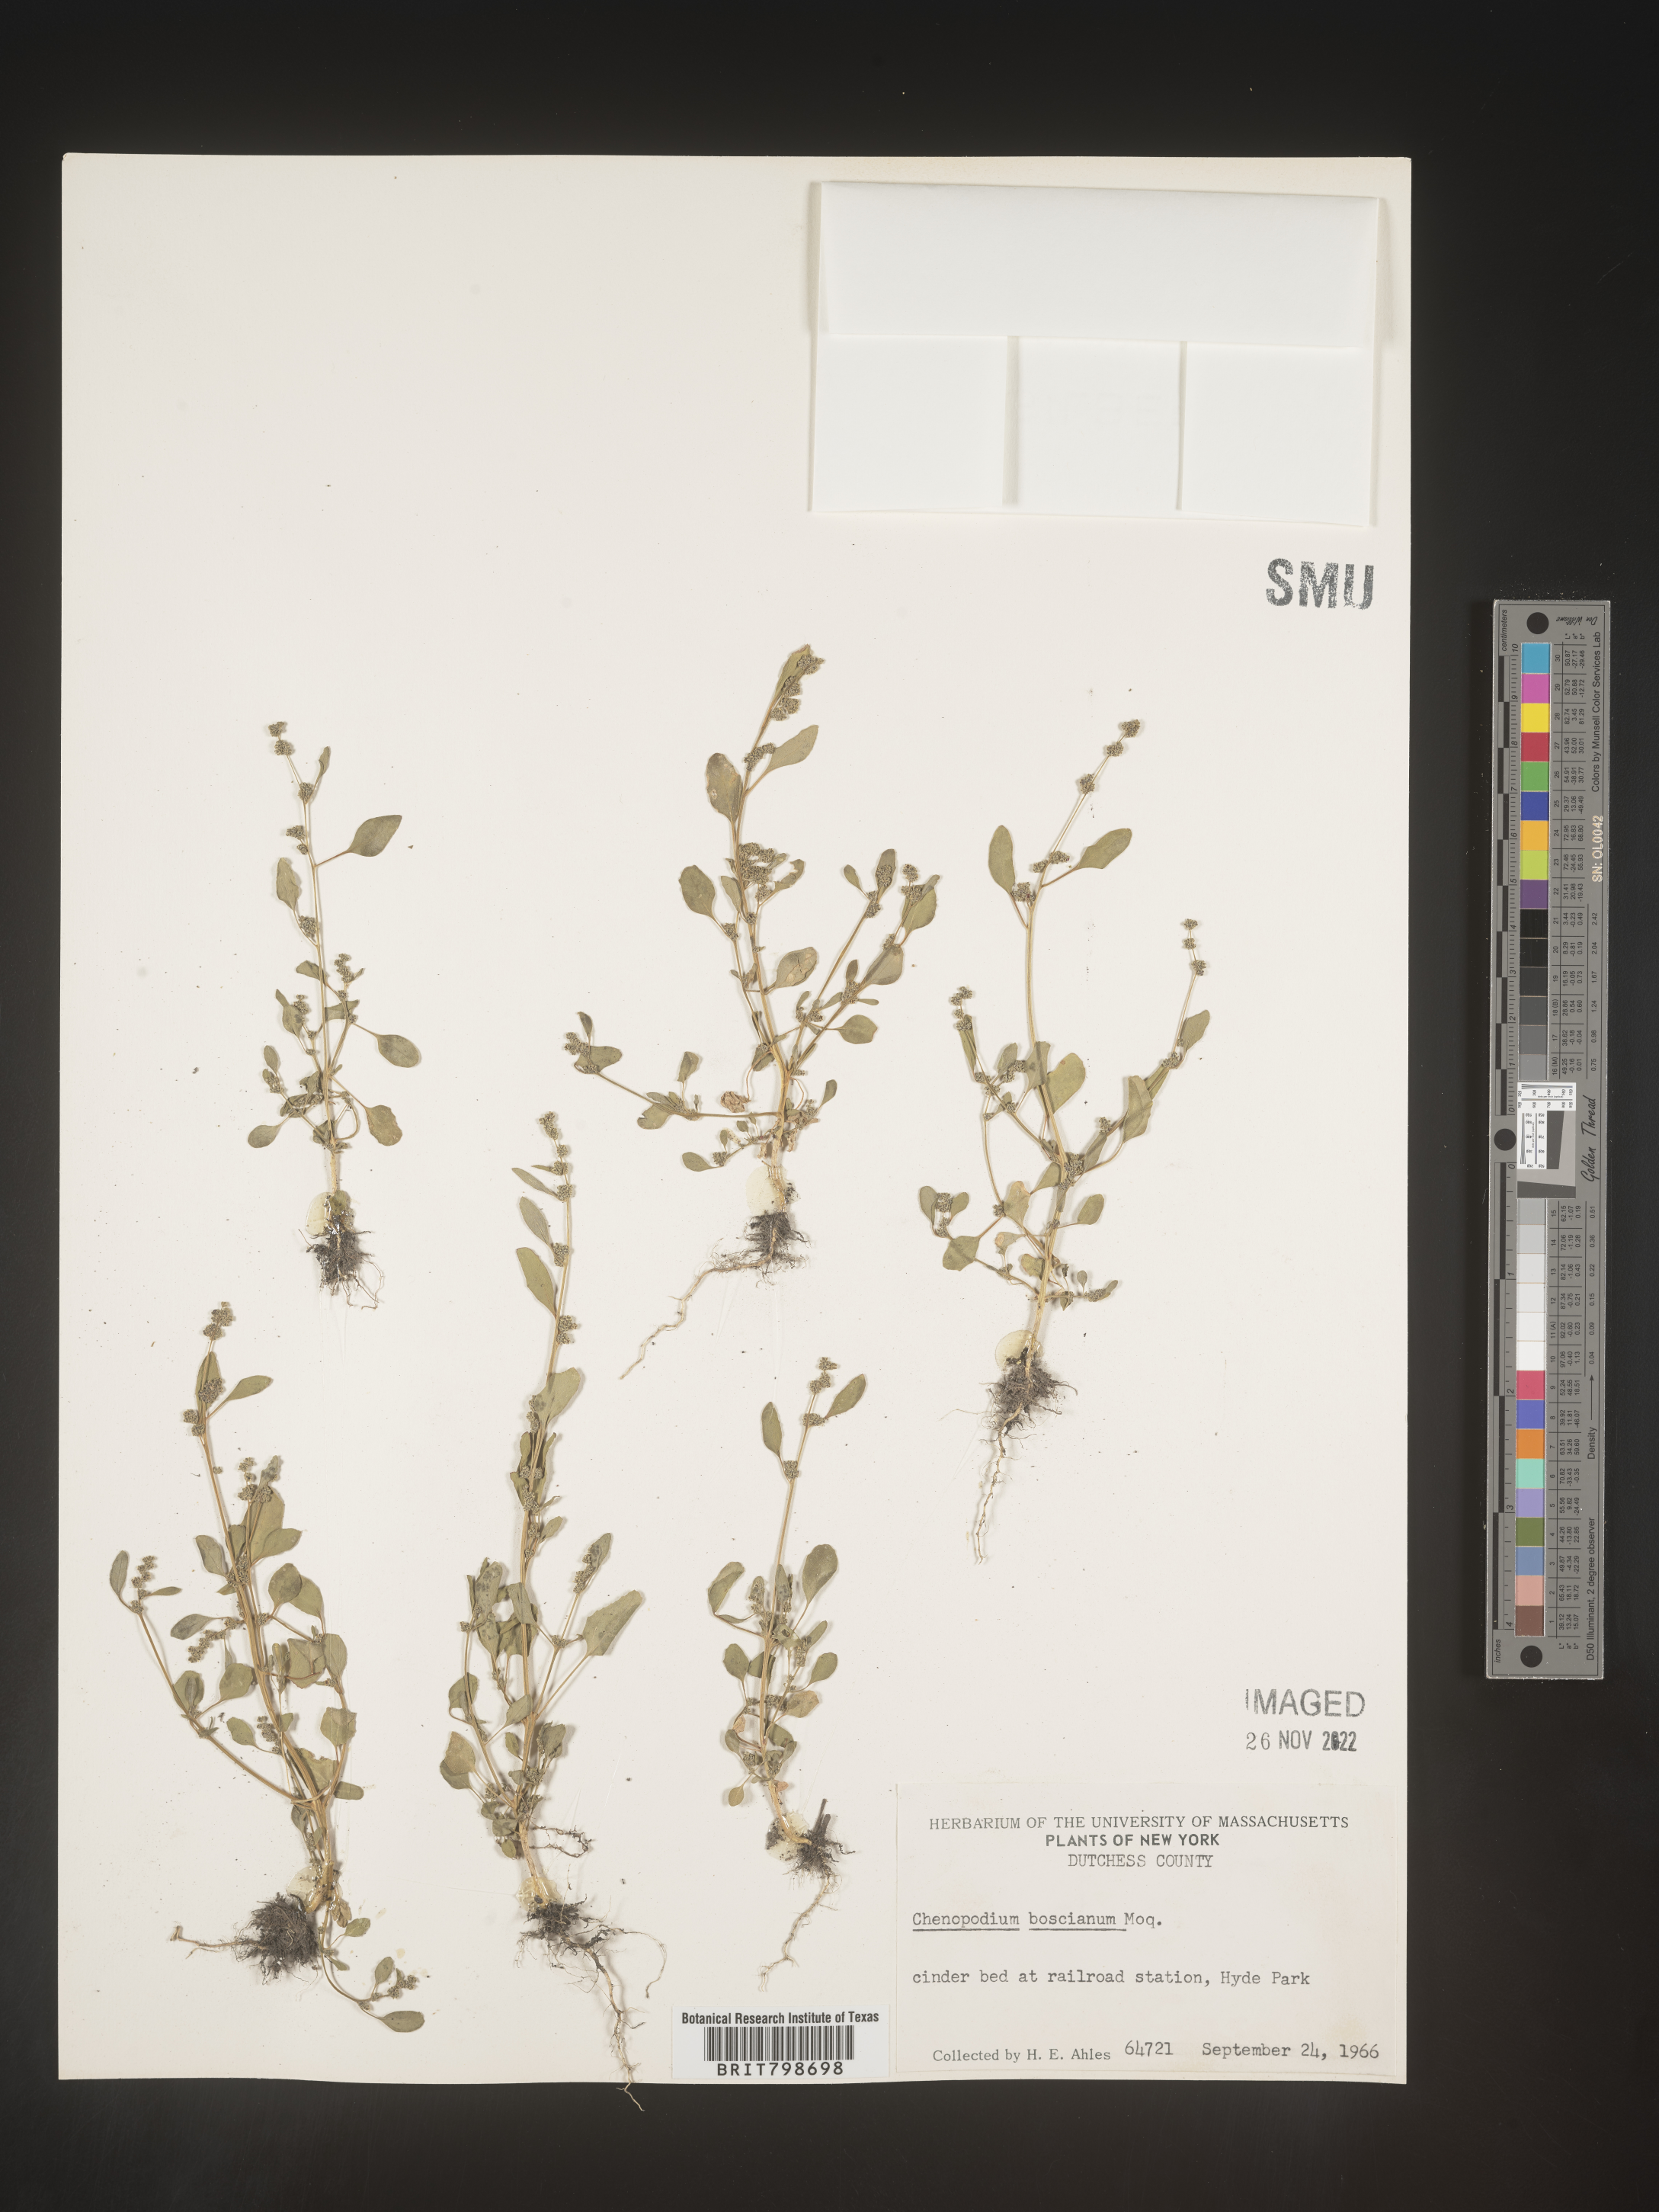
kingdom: Plantae
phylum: Tracheophyta
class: Magnoliopsida
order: Caryophyllales
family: Amaranthaceae
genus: Chenopodium
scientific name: Chenopodium berlandieri
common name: Pit-seed goosefoot
